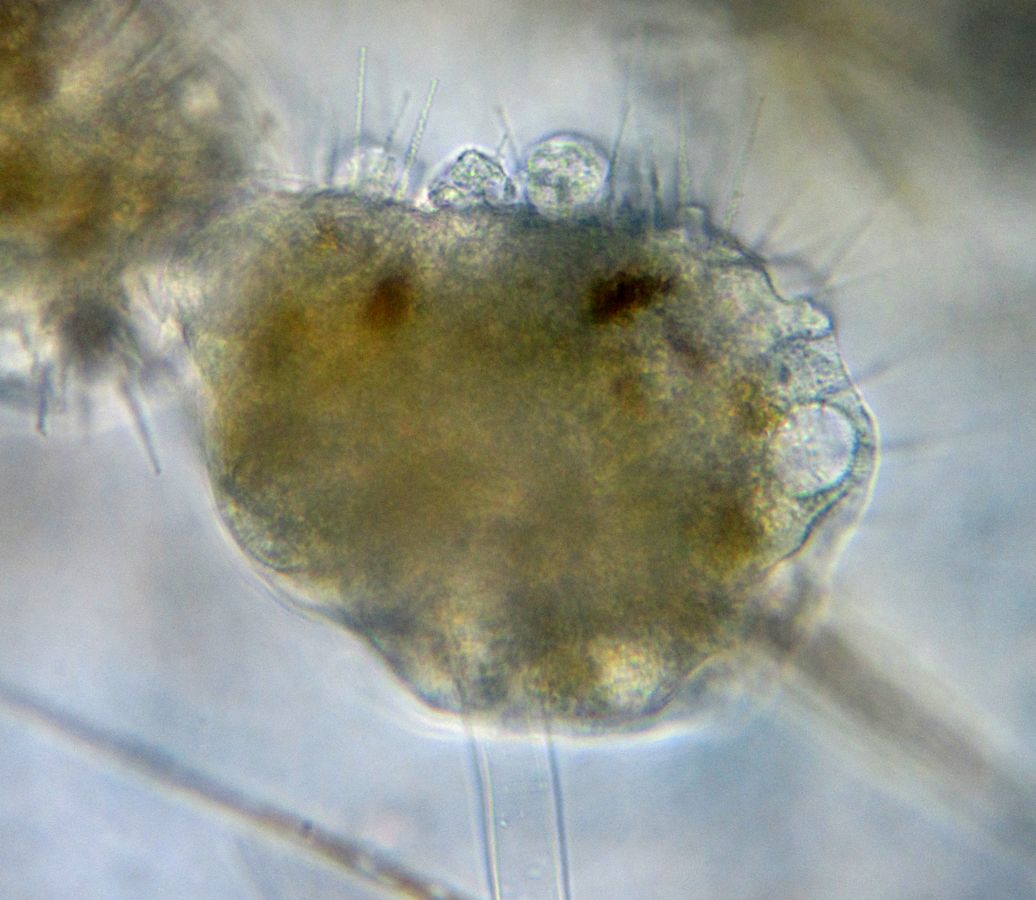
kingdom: Chromista
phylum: Ciliophora
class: Phyllopharyngea
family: Ephelotidae
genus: Ephelota
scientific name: Ephelota gemmipara
